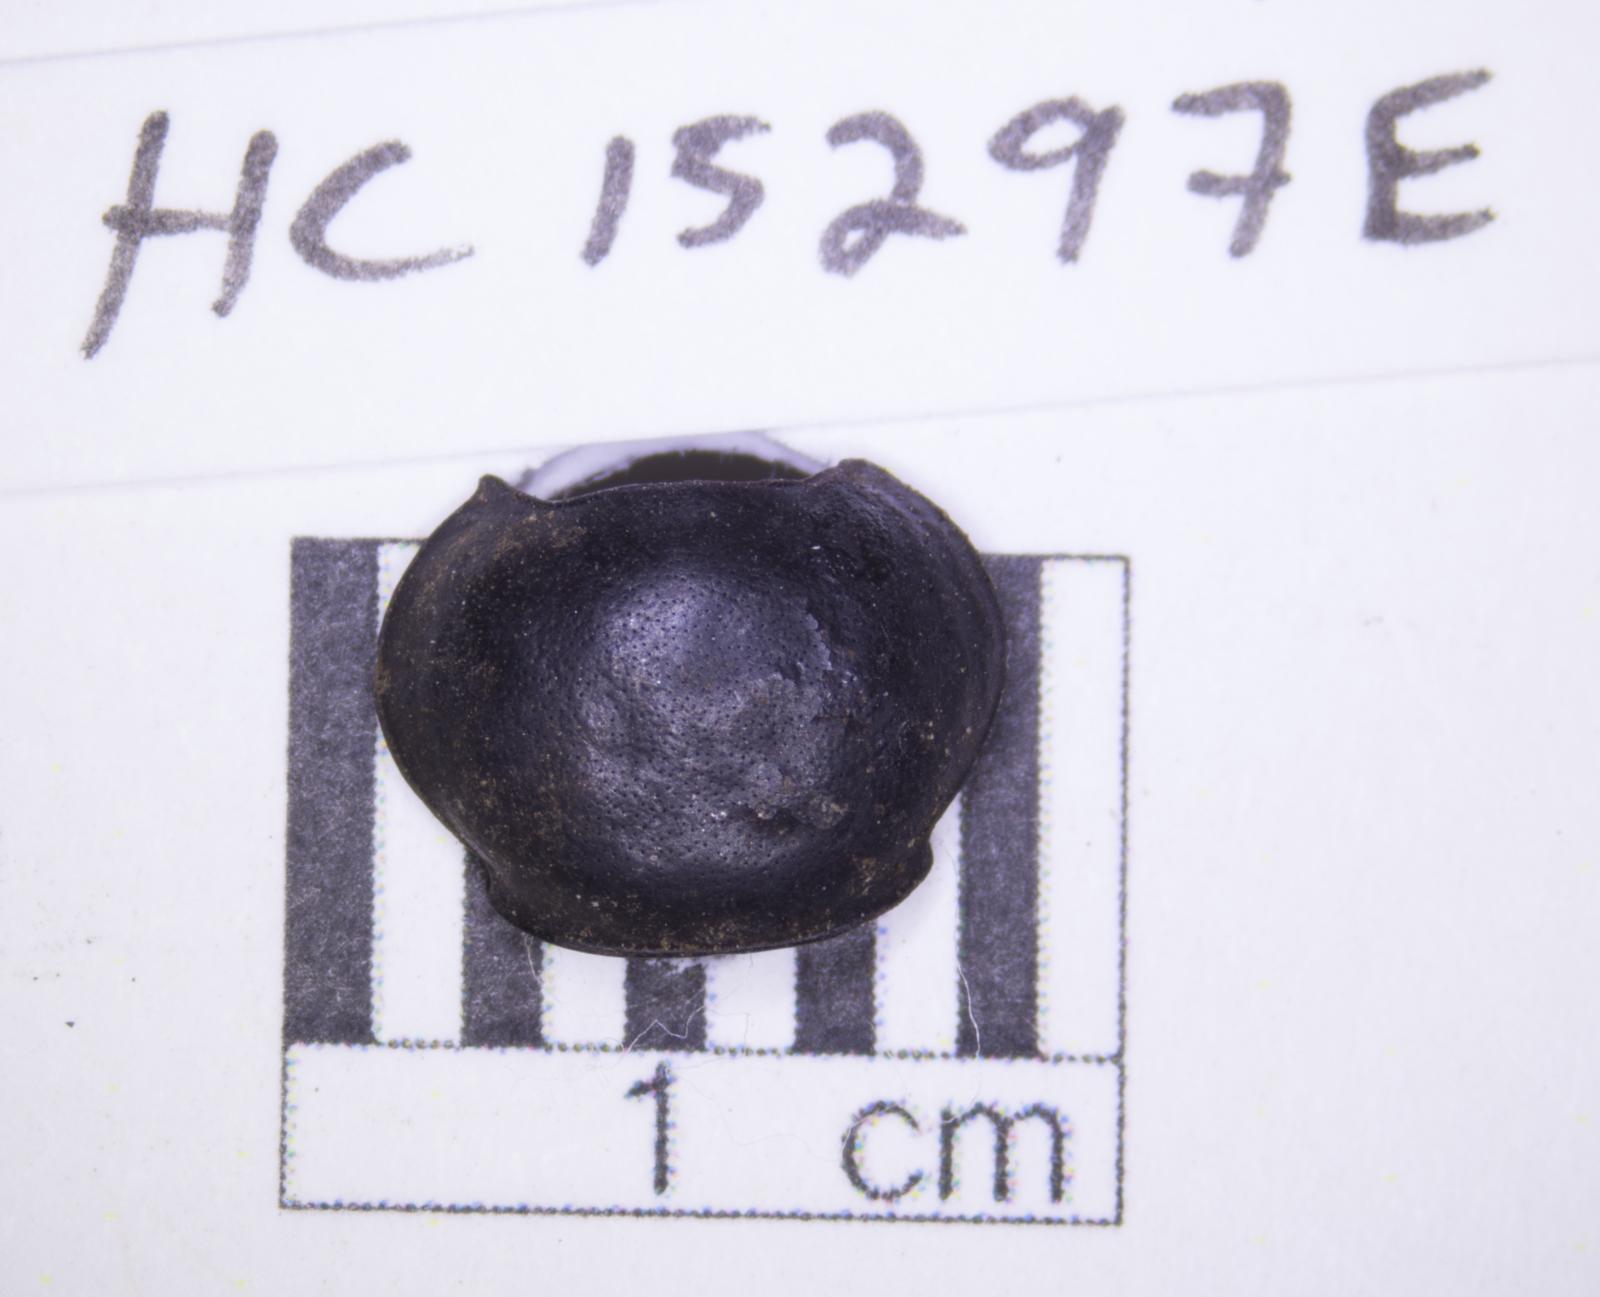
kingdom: Animalia
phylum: Arthropoda
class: Insecta
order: Coleoptera
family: Tenebrionidae
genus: Eleodes
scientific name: Eleodes acuticauda
